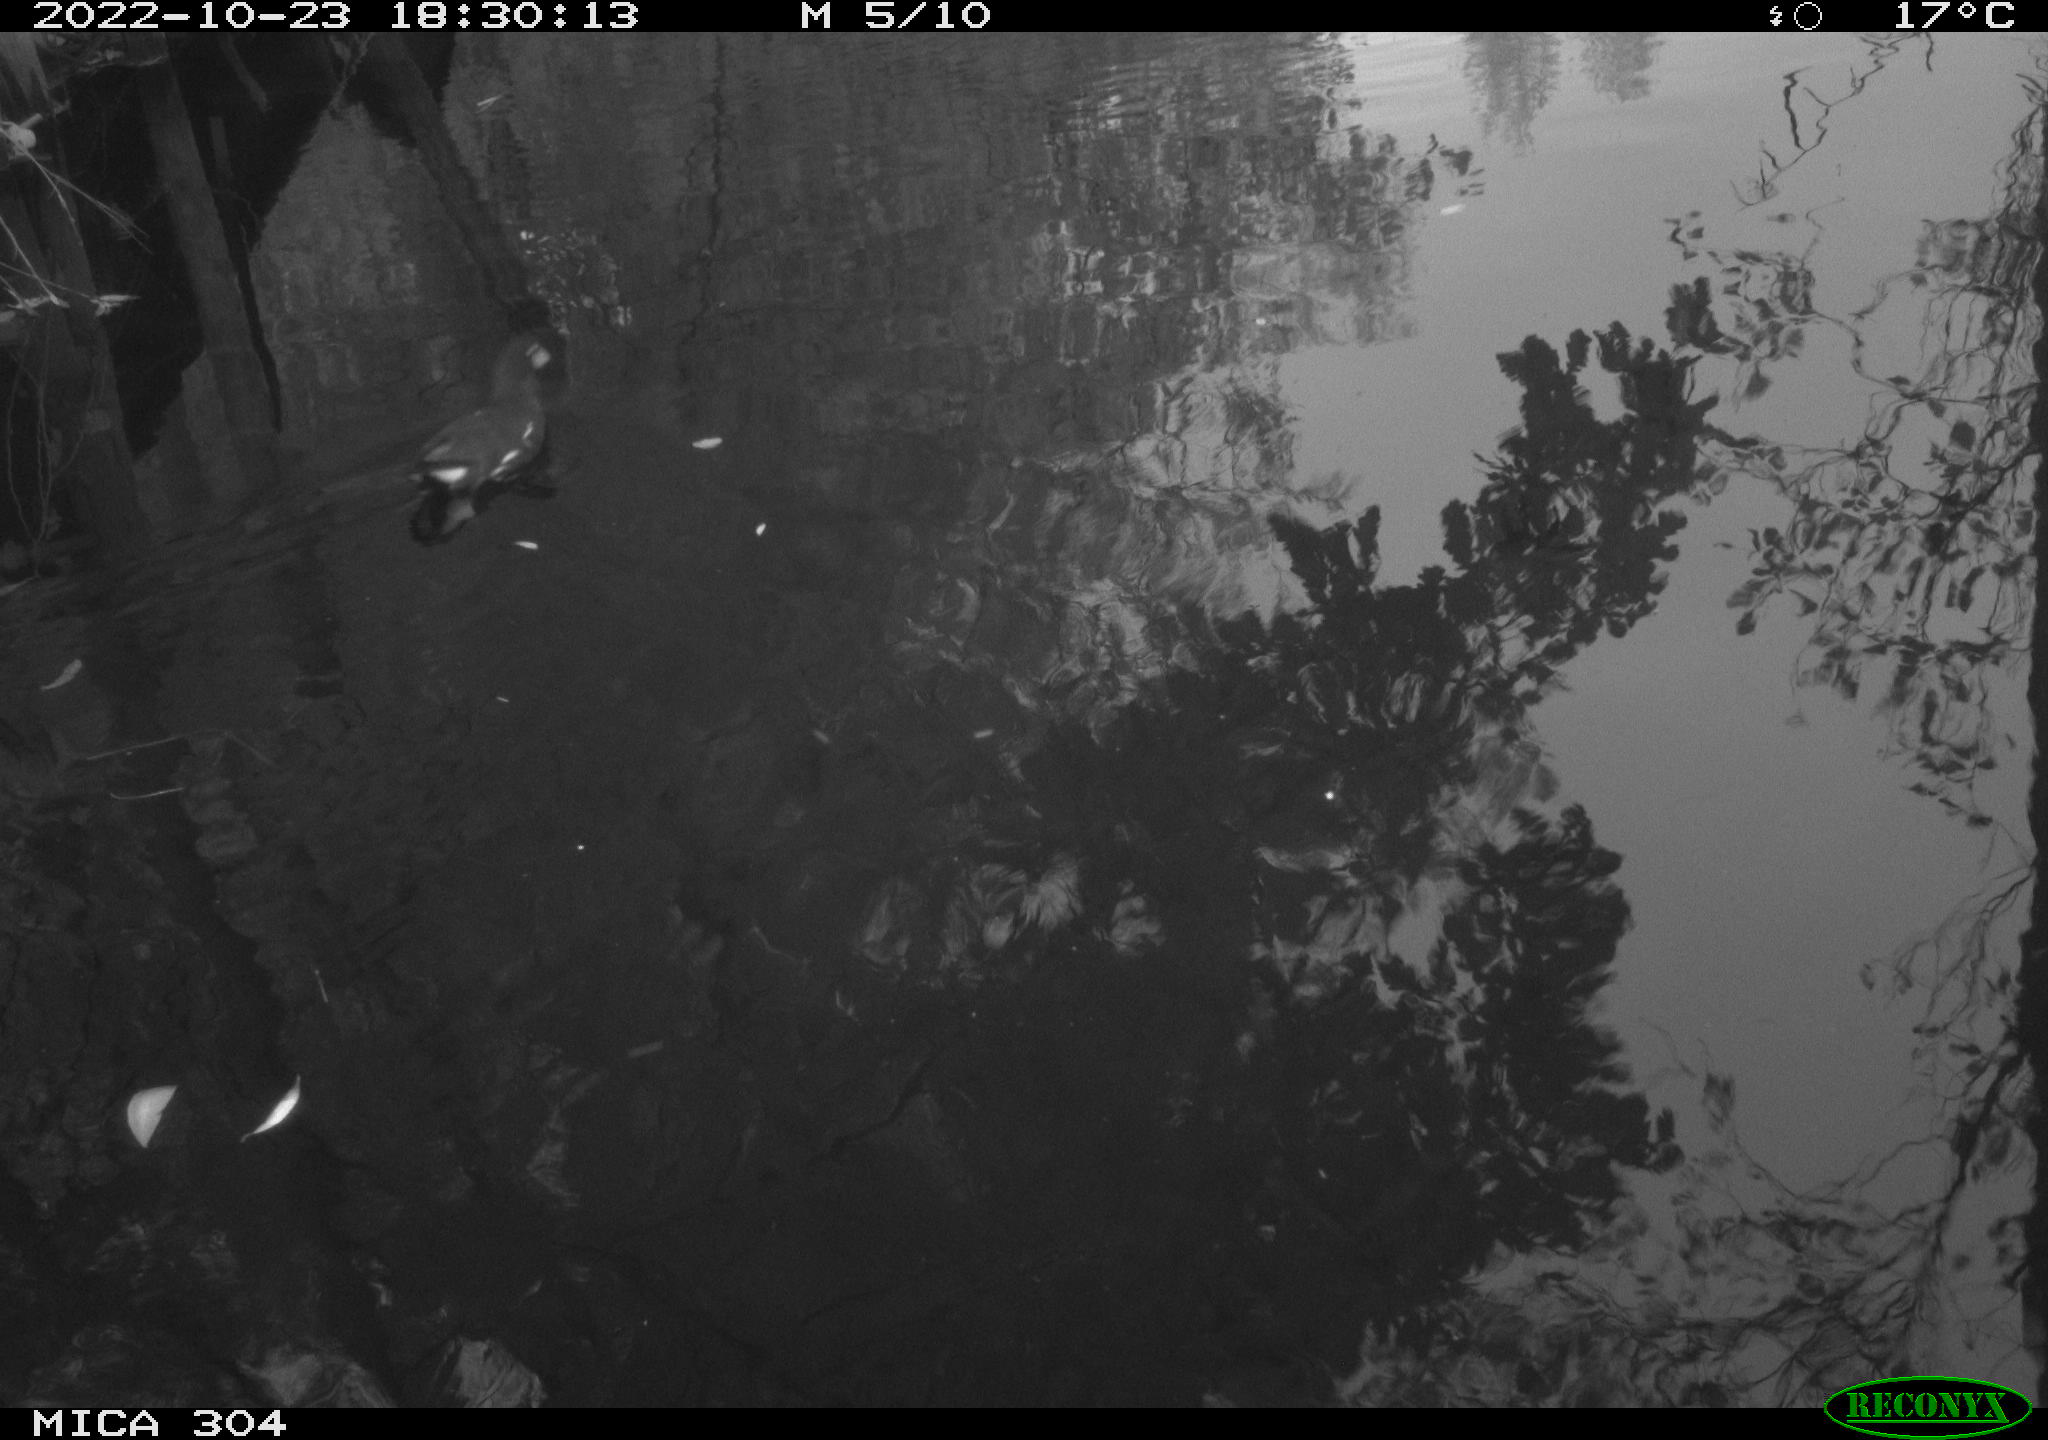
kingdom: Animalia
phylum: Chordata
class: Aves
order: Gruiformes
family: Rallidae
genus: Gallinula
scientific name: Gallinula chloropus
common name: Common moorhen
